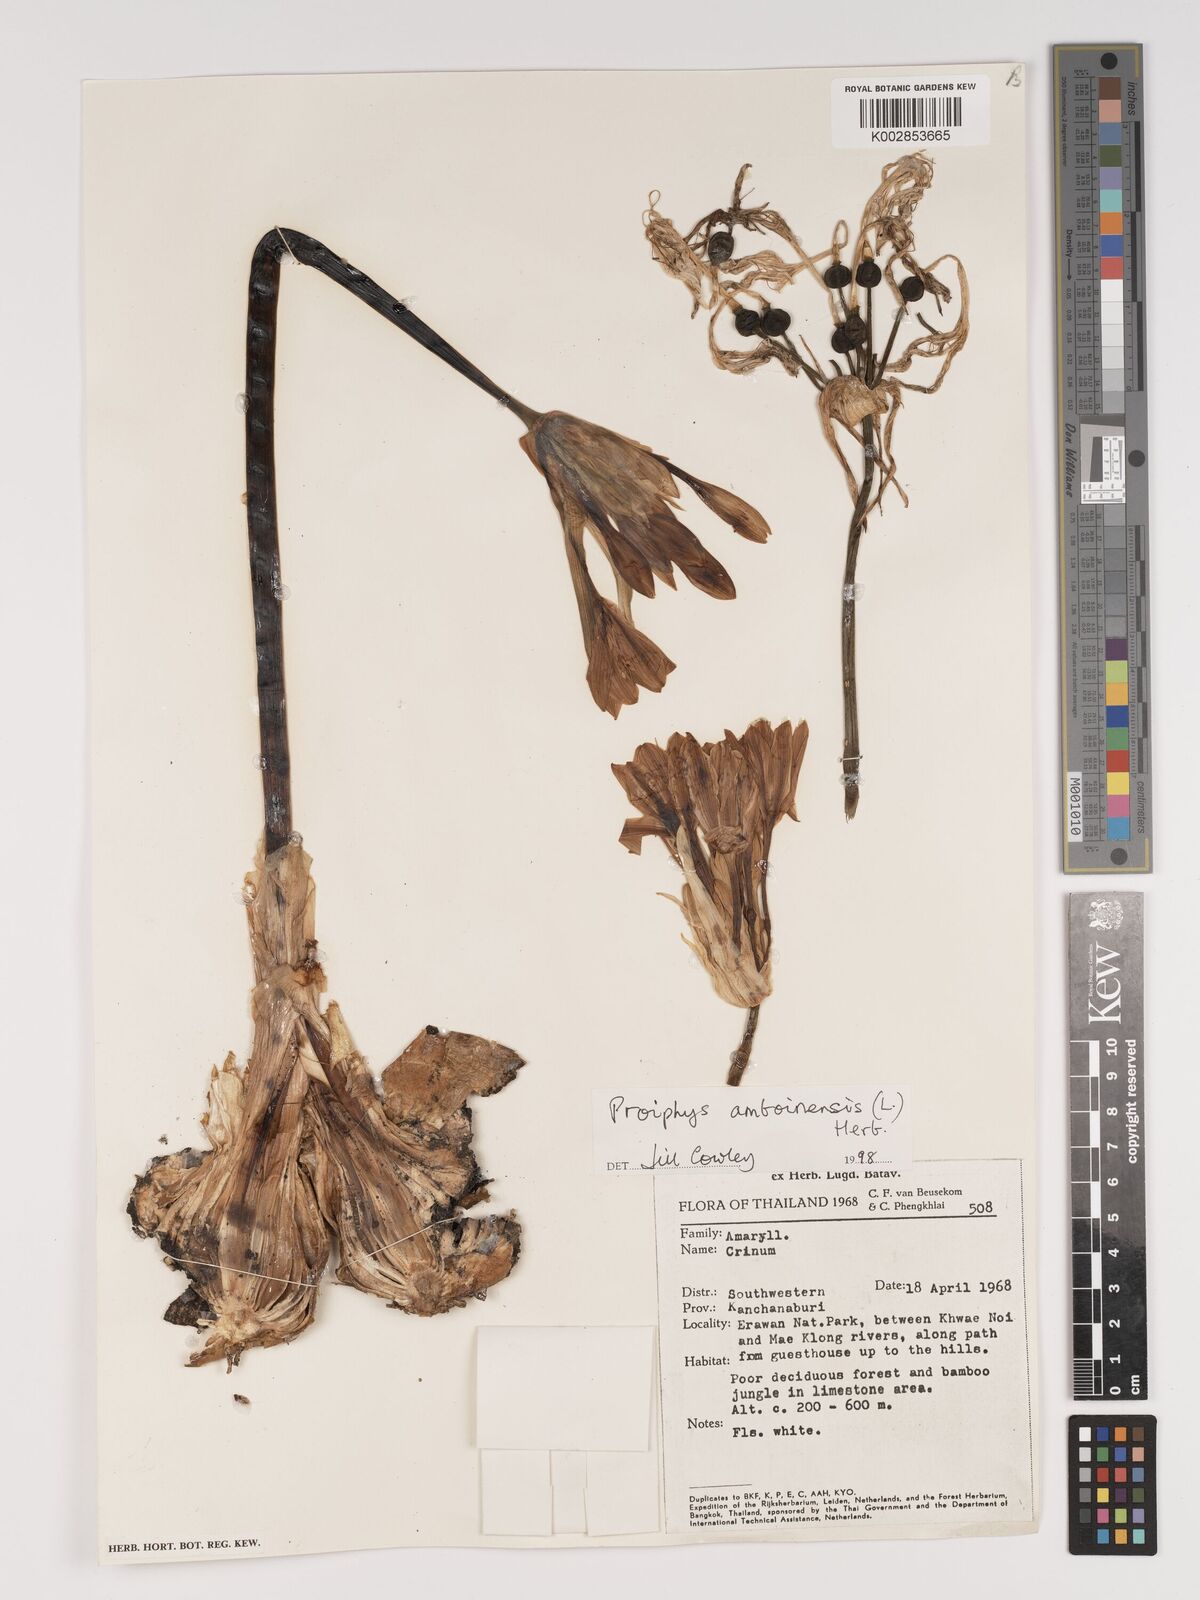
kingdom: Plantae
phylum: Tracheophyta
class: Liliopsida
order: Asparagales
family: Amaryllidaceae
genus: Proiphys
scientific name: Proiphys amboinensis
